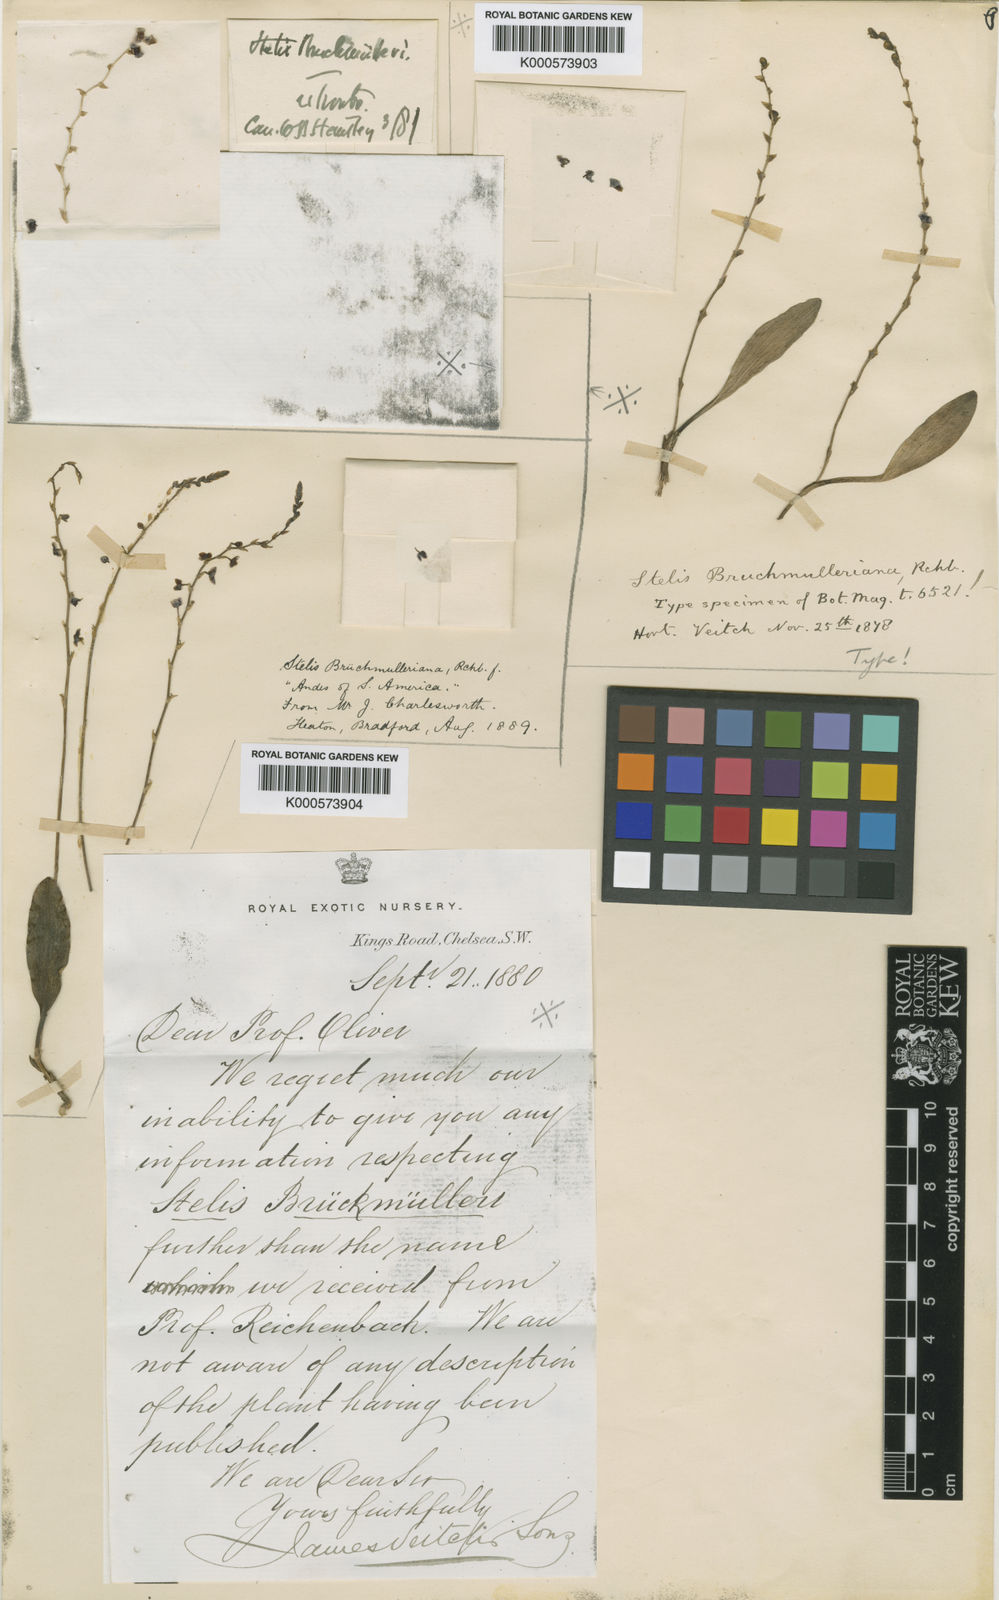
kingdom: Plantae
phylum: Tracheophyta
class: Liliopsida
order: Asparagales
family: Orchidaceae
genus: Stelis
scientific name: Stelis eublepharis
